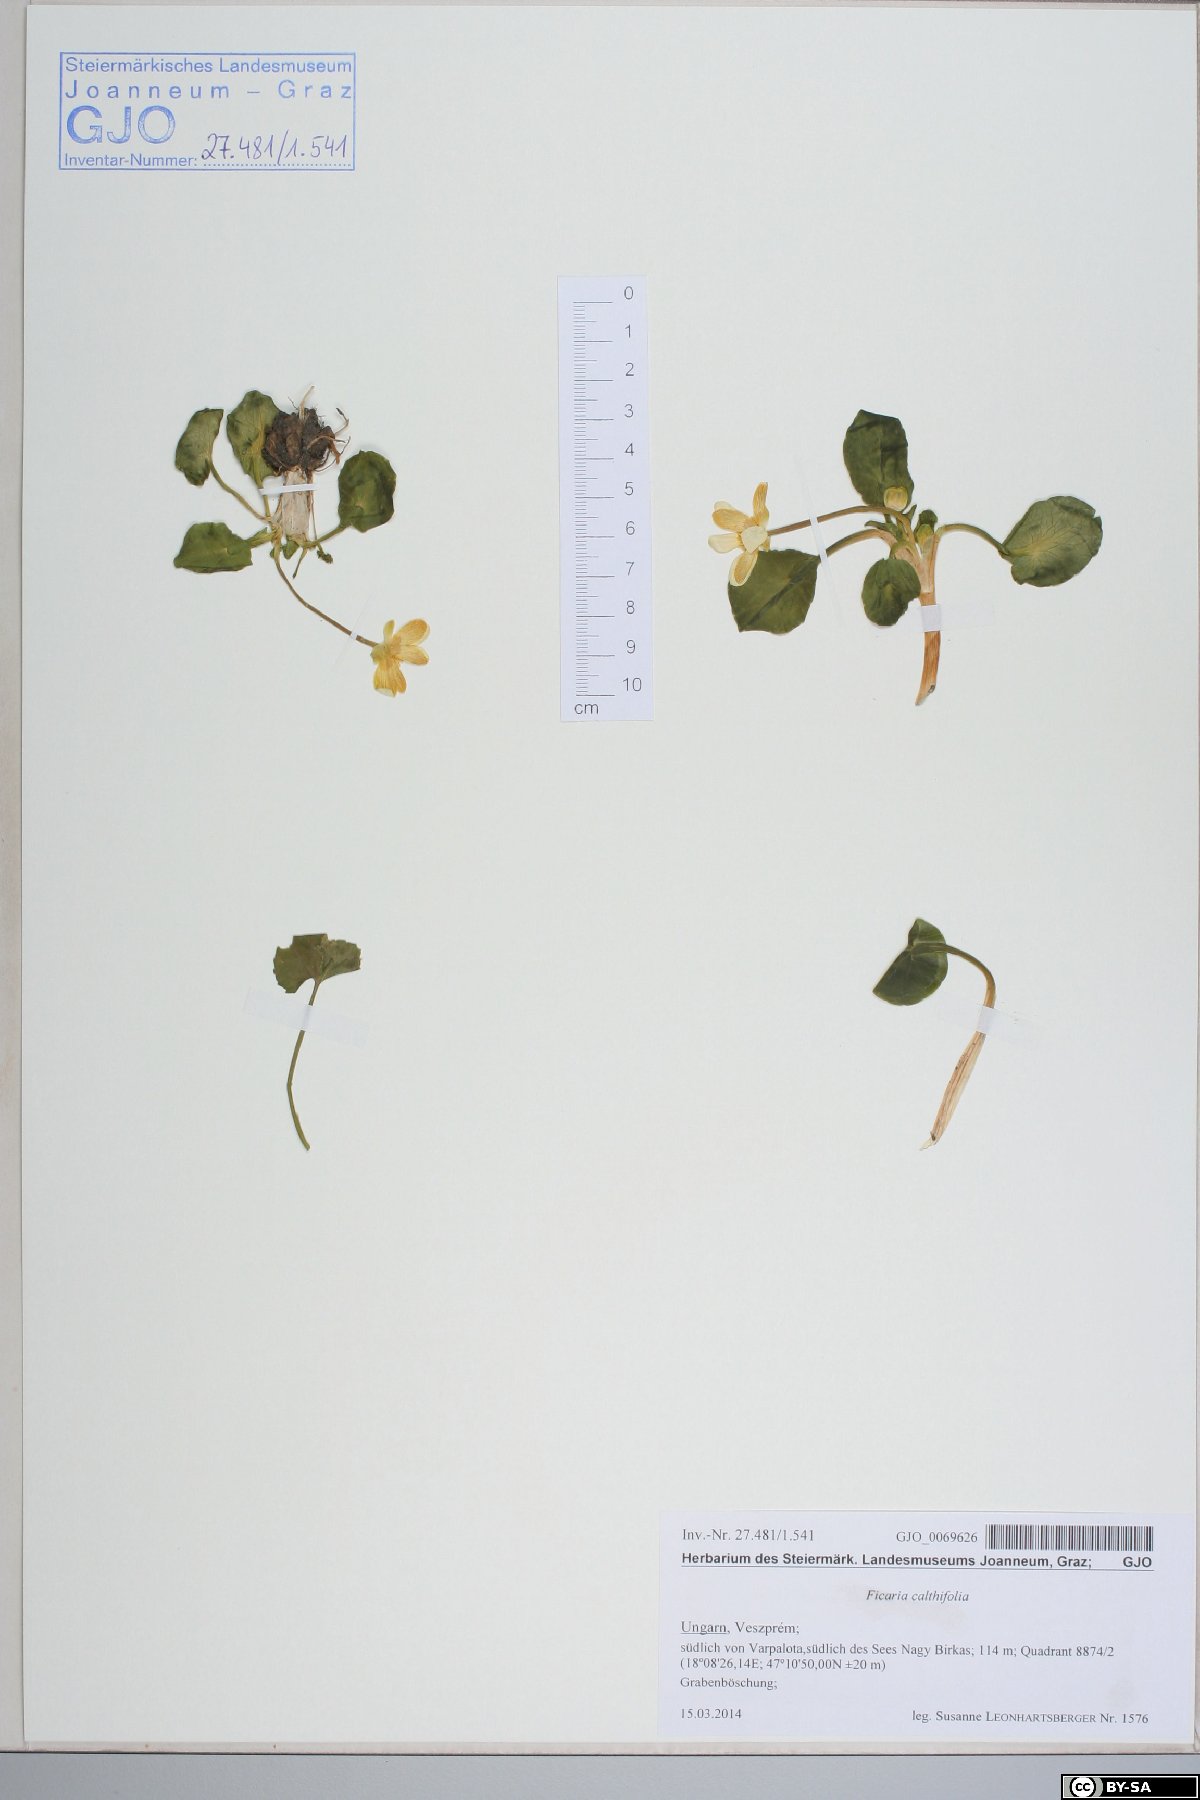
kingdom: Plantae
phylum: Tracheophyta
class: Magnoliopsida
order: Ranunculales
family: Ranunculaceae
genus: Ficaria
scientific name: Ficaria calthifolia
